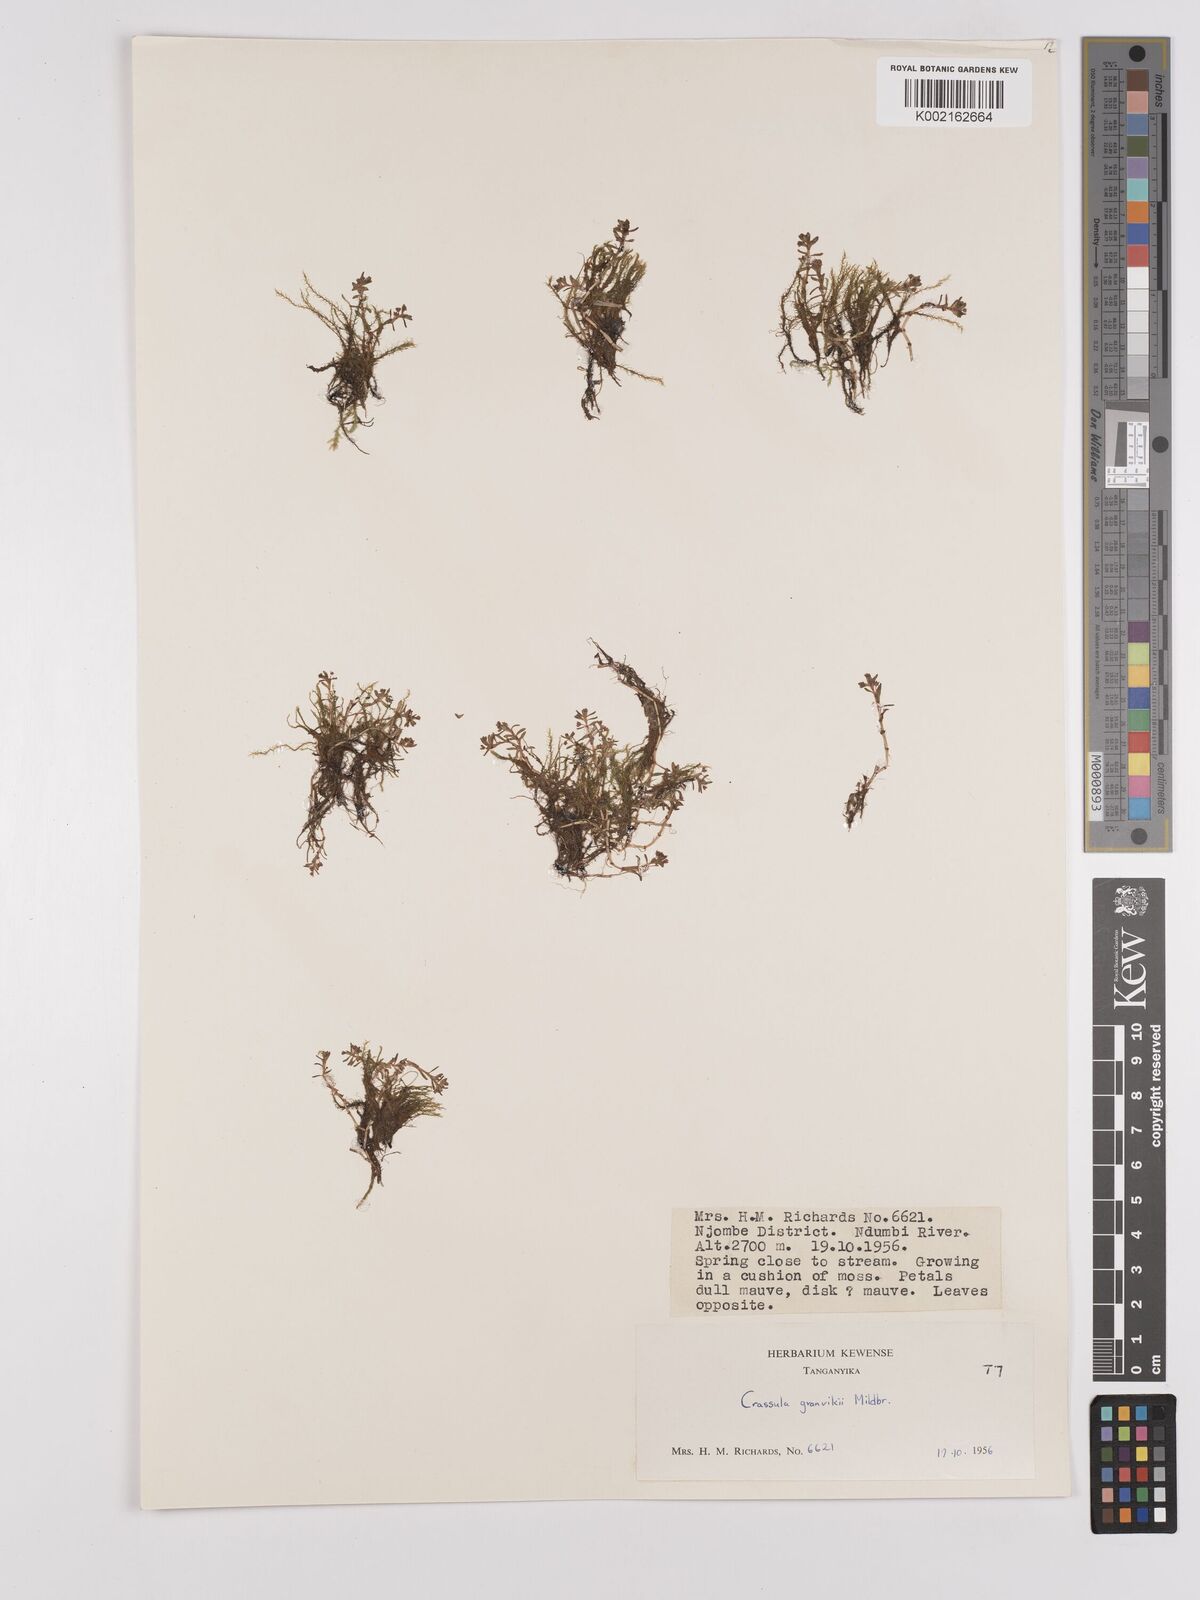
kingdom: Plantae
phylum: Tracheophyta
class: Magnoliopsida
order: Saxifragales
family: Crassulaceae
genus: Crassula
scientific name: Crassula granvikii
